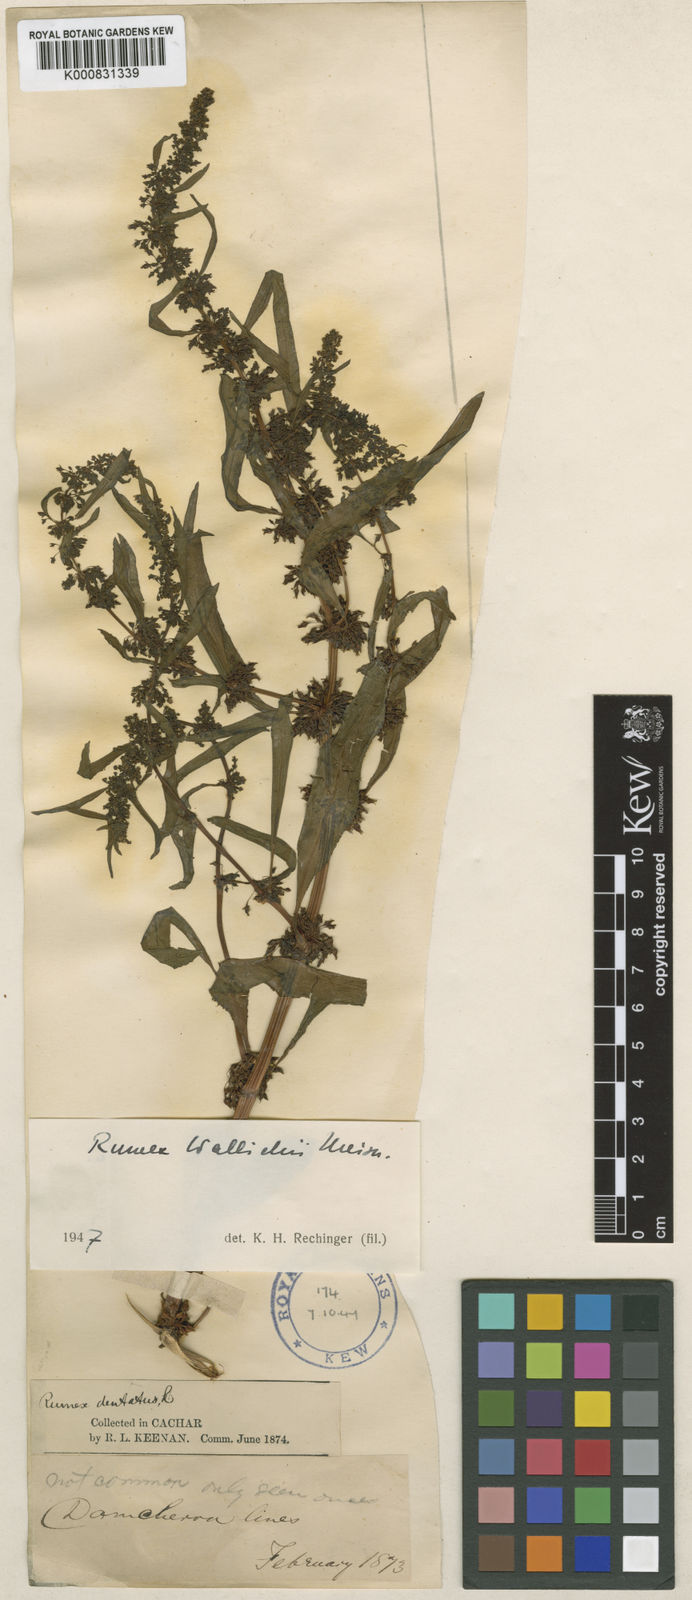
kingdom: Plantae
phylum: Tracheophyta
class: Magnoliopsida
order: Caryophyllales
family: Polygonaceae
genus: Rumex
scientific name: Rumex microcarpus
